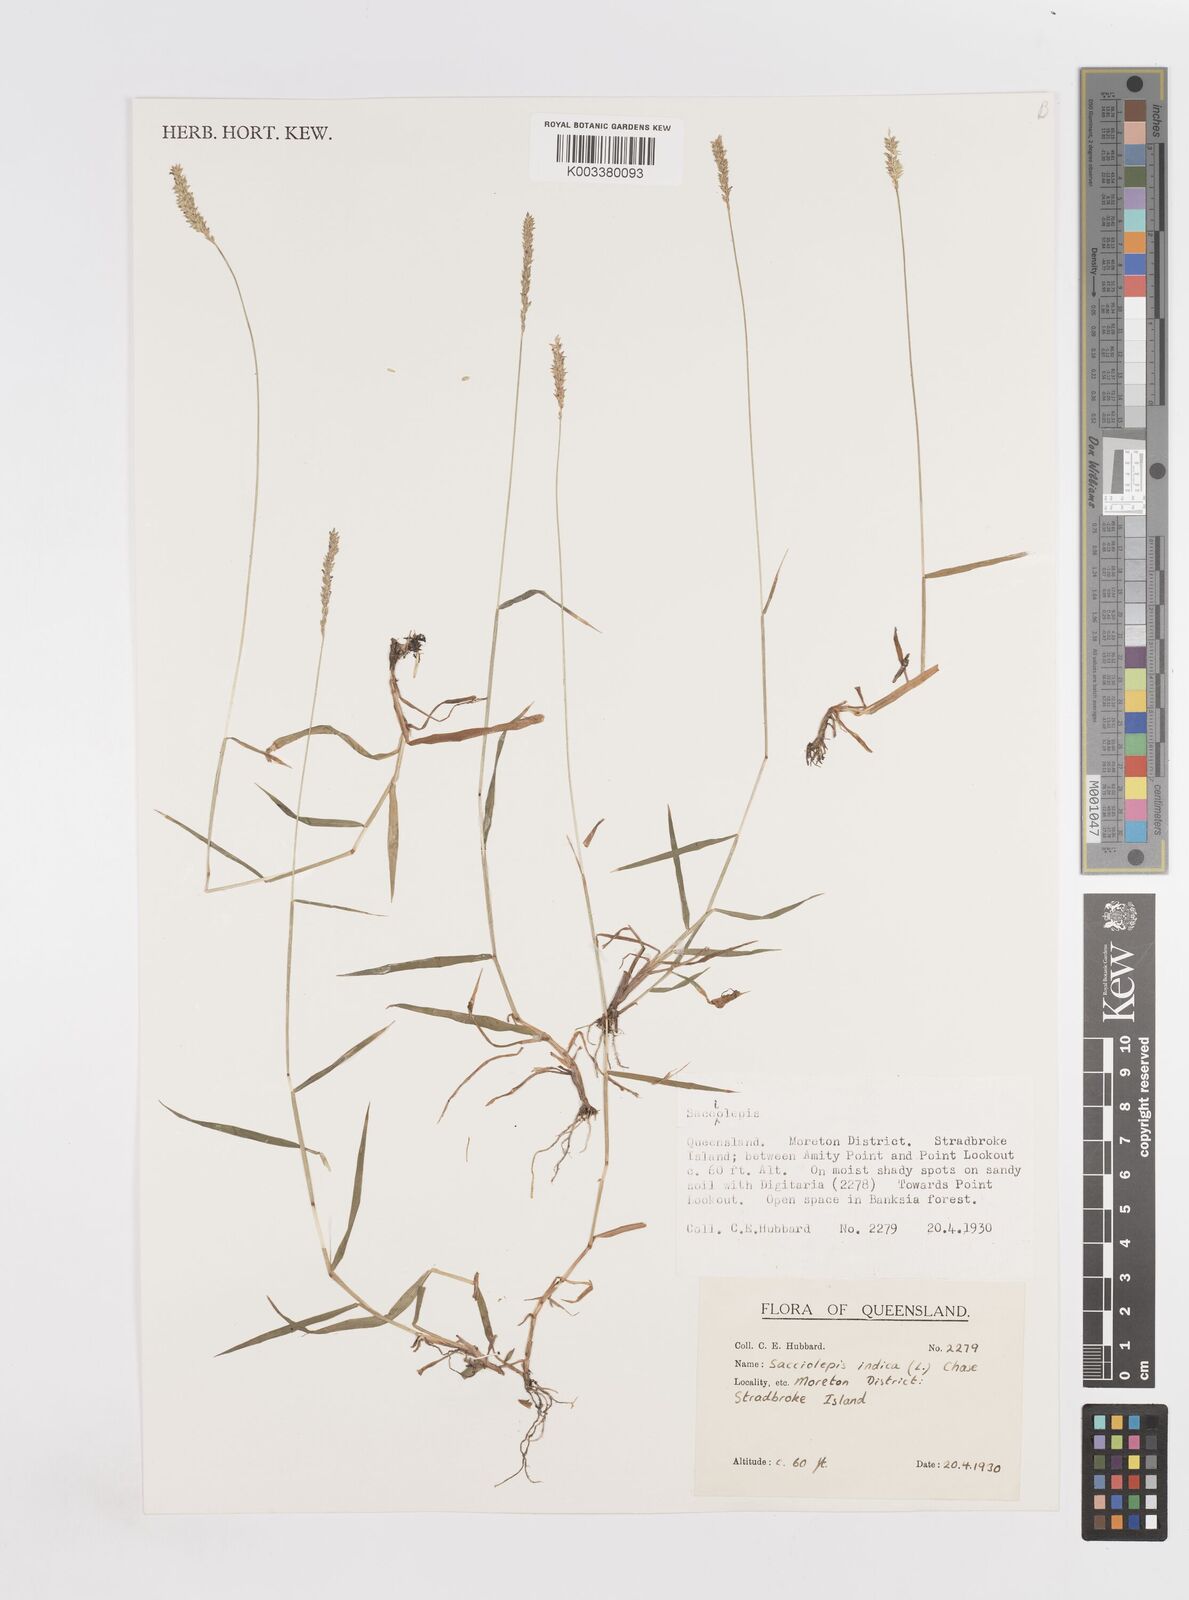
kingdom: Plantae
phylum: Tracheophyta
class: Liliopsida
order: Poales
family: Poaceae
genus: Sacciolepis
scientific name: Sacciolepis indica
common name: Glenwoodgrass
